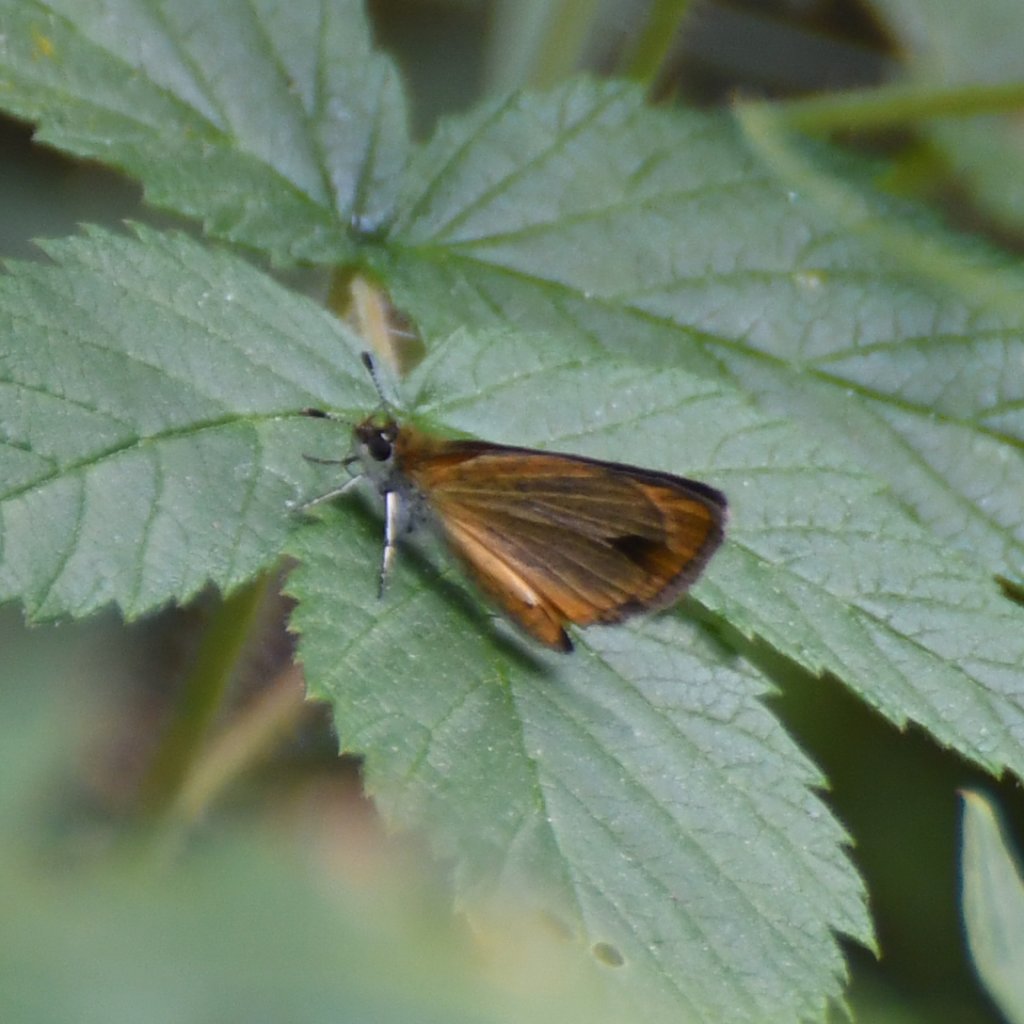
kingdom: Animalia
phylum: Arthropoda
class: Insecta
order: Lepidoptera
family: Hesperiidae
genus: Ancyloxypha
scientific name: Ancyloxypha numitor
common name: Least Skipper
